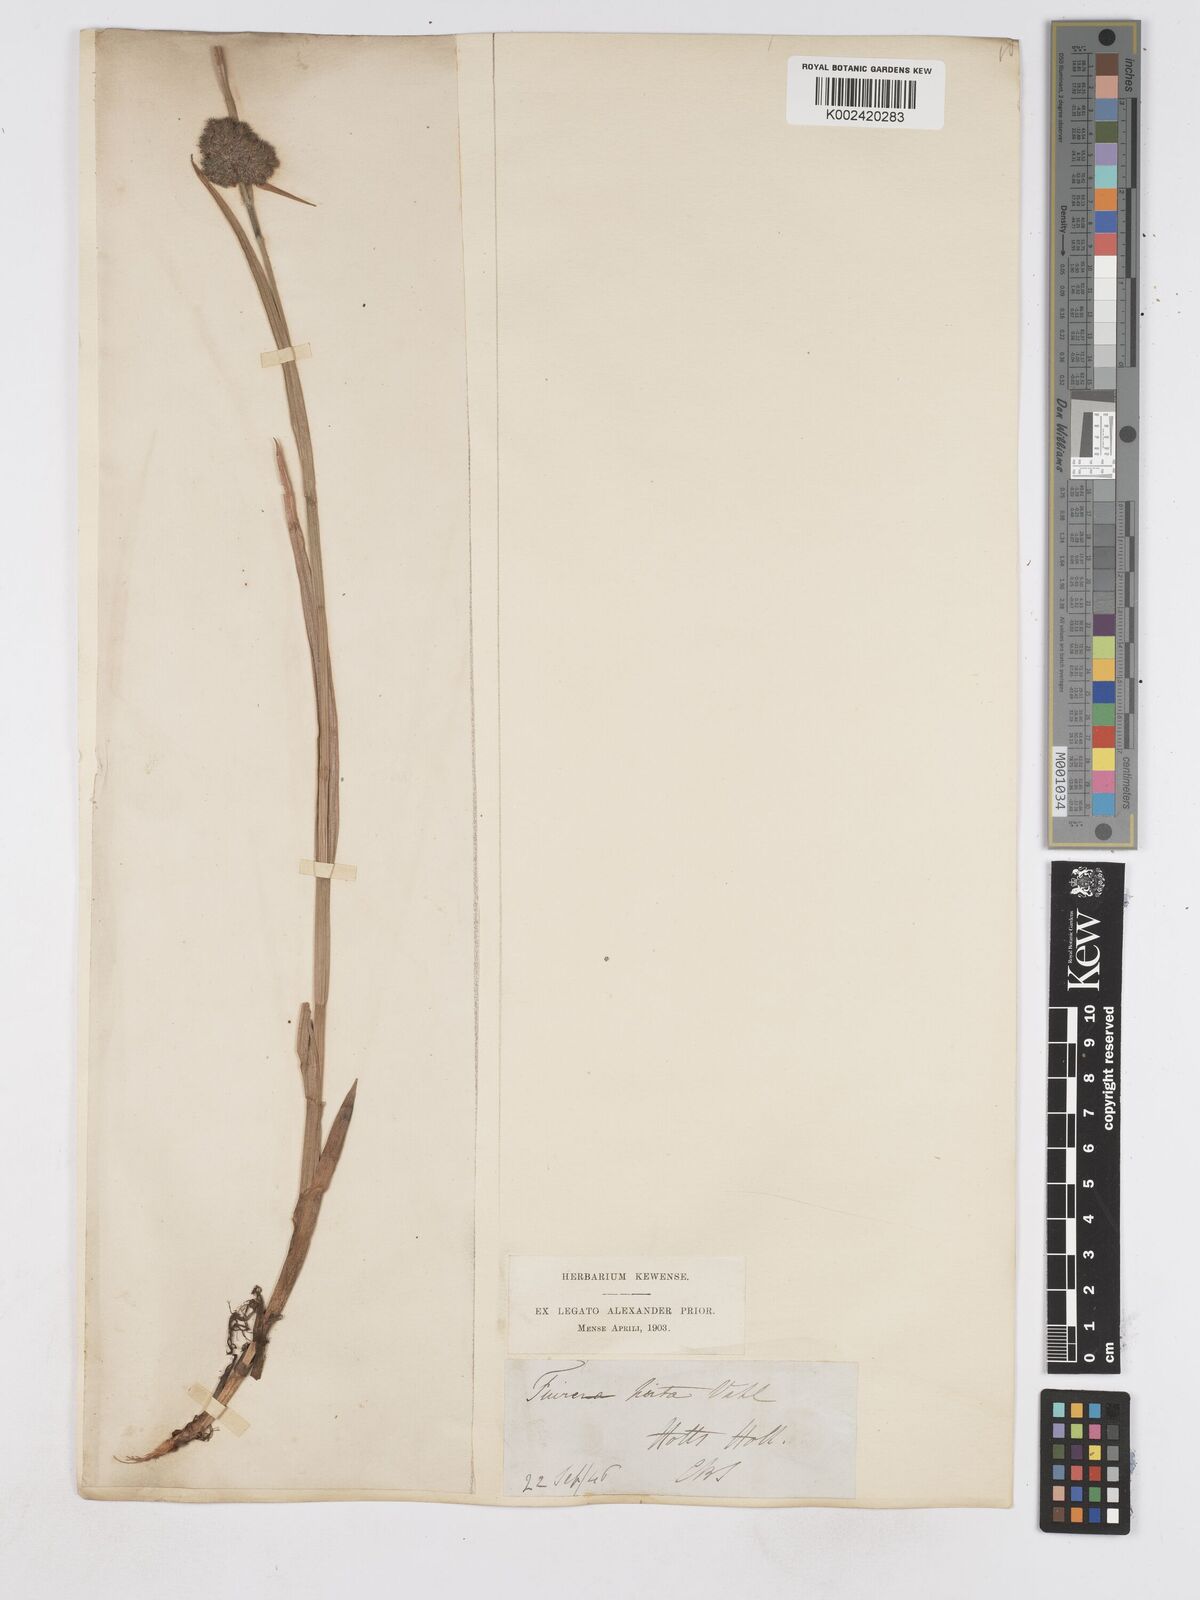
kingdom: Plantae
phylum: Tracheophyta
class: Liliopsida
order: Poales
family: Cyperaceae
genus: Fuirena
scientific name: Fuirena hirsuta
